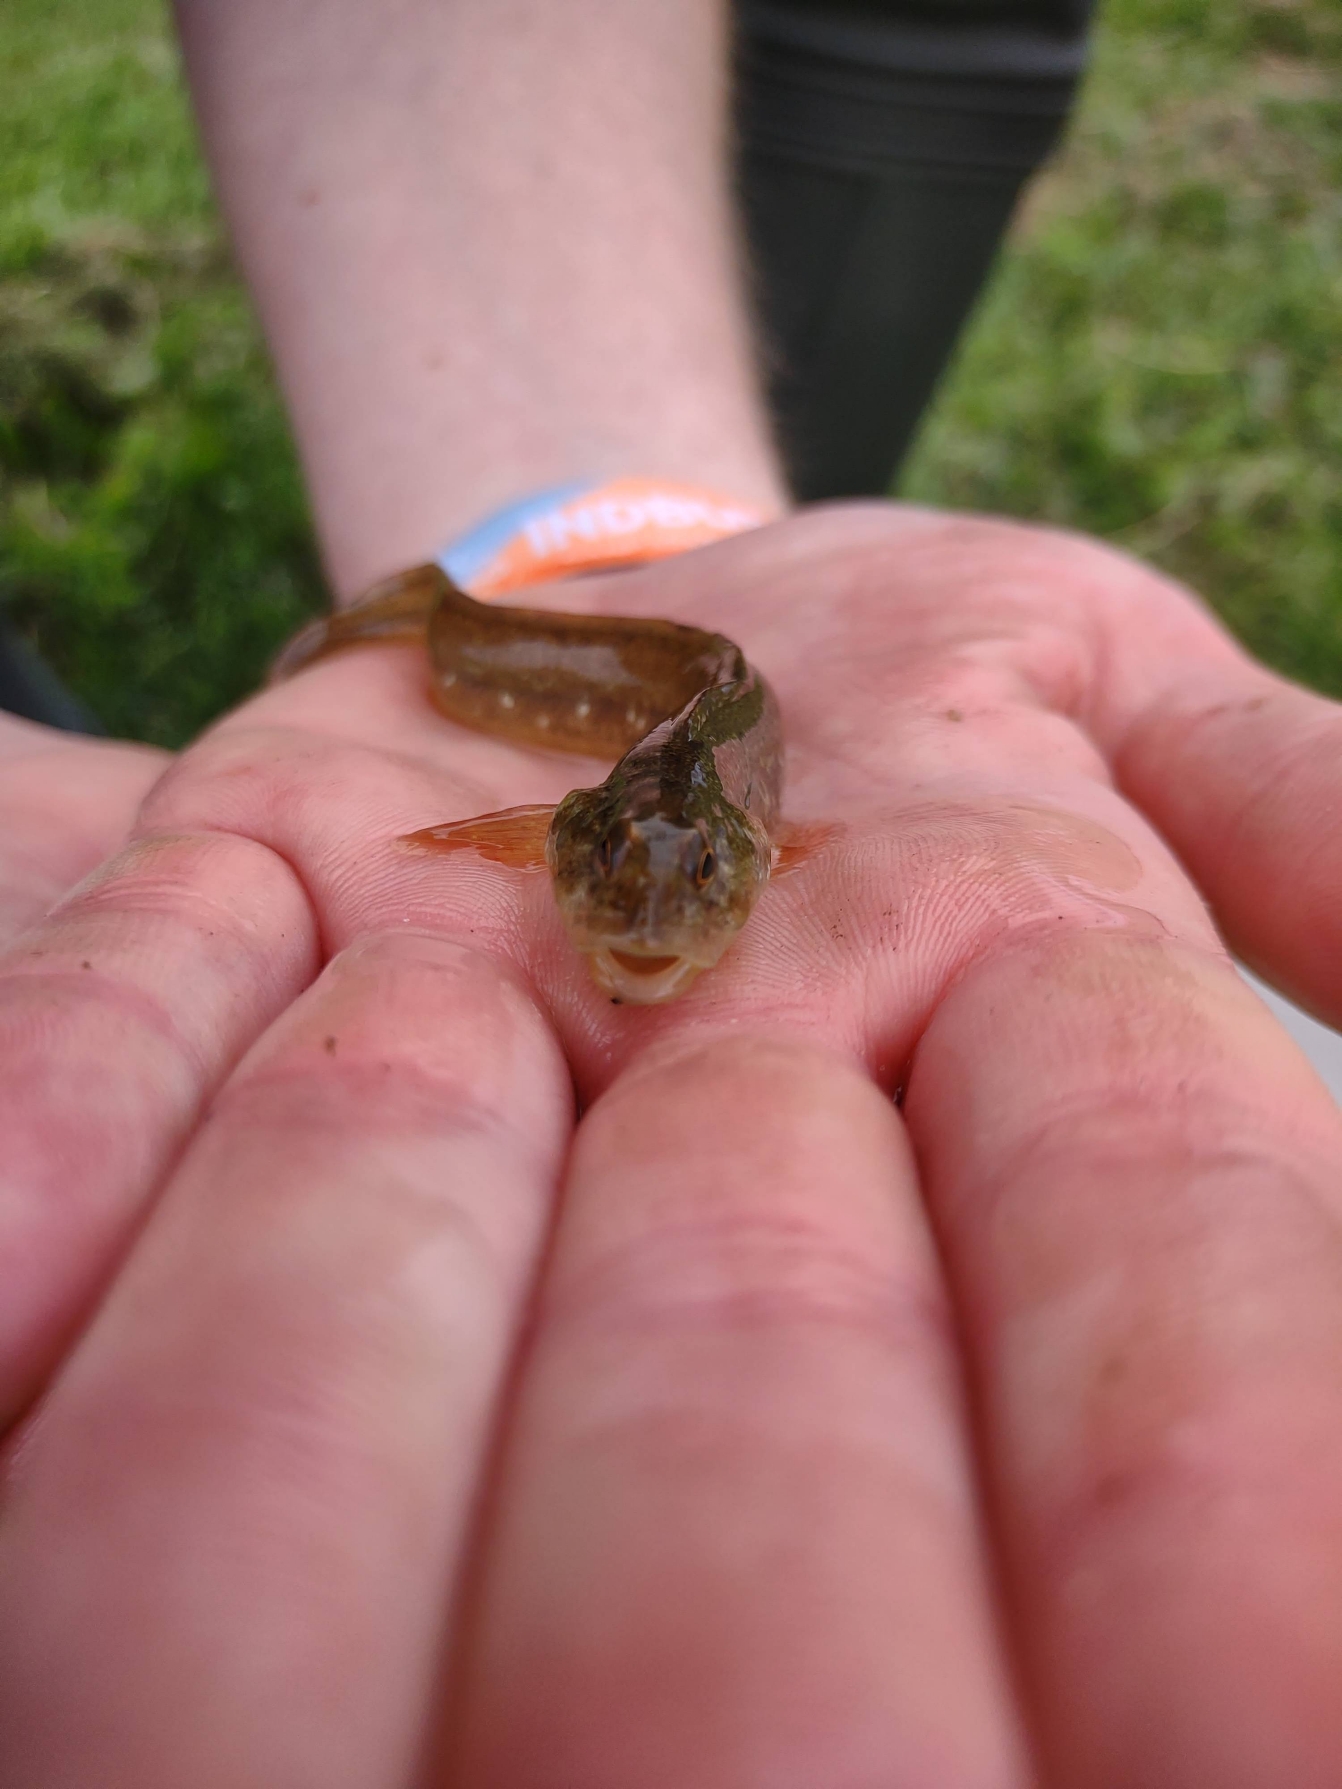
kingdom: Animalia
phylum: Chordata
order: Perciformes
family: Zoarcidae
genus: Zoarces
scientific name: Zoarces viviparus
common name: Ålekvabbe
